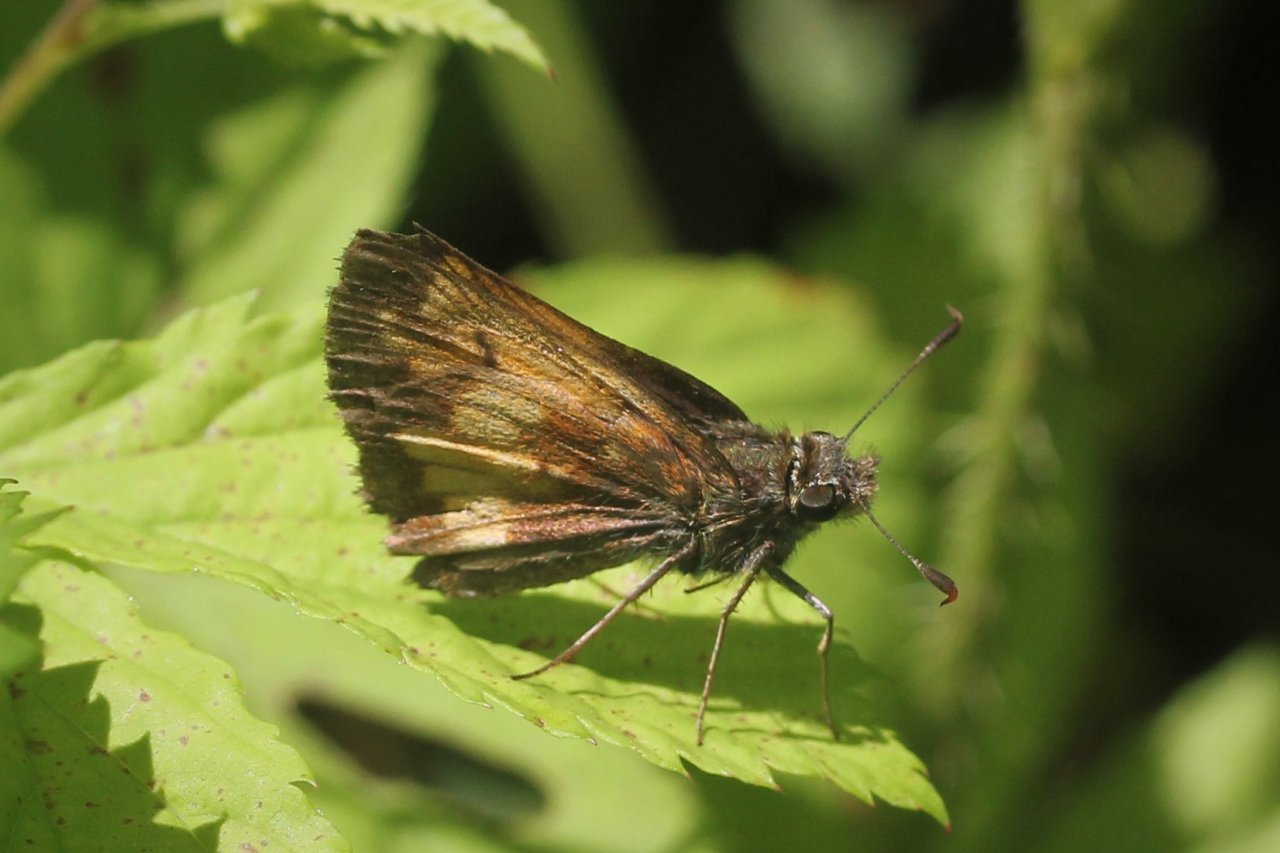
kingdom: Animalia
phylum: Arthropoda
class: Insecta
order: Lepidoptera
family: Hesperiidae
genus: Lon
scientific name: Lon hobomok
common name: Hobomok Skipper
